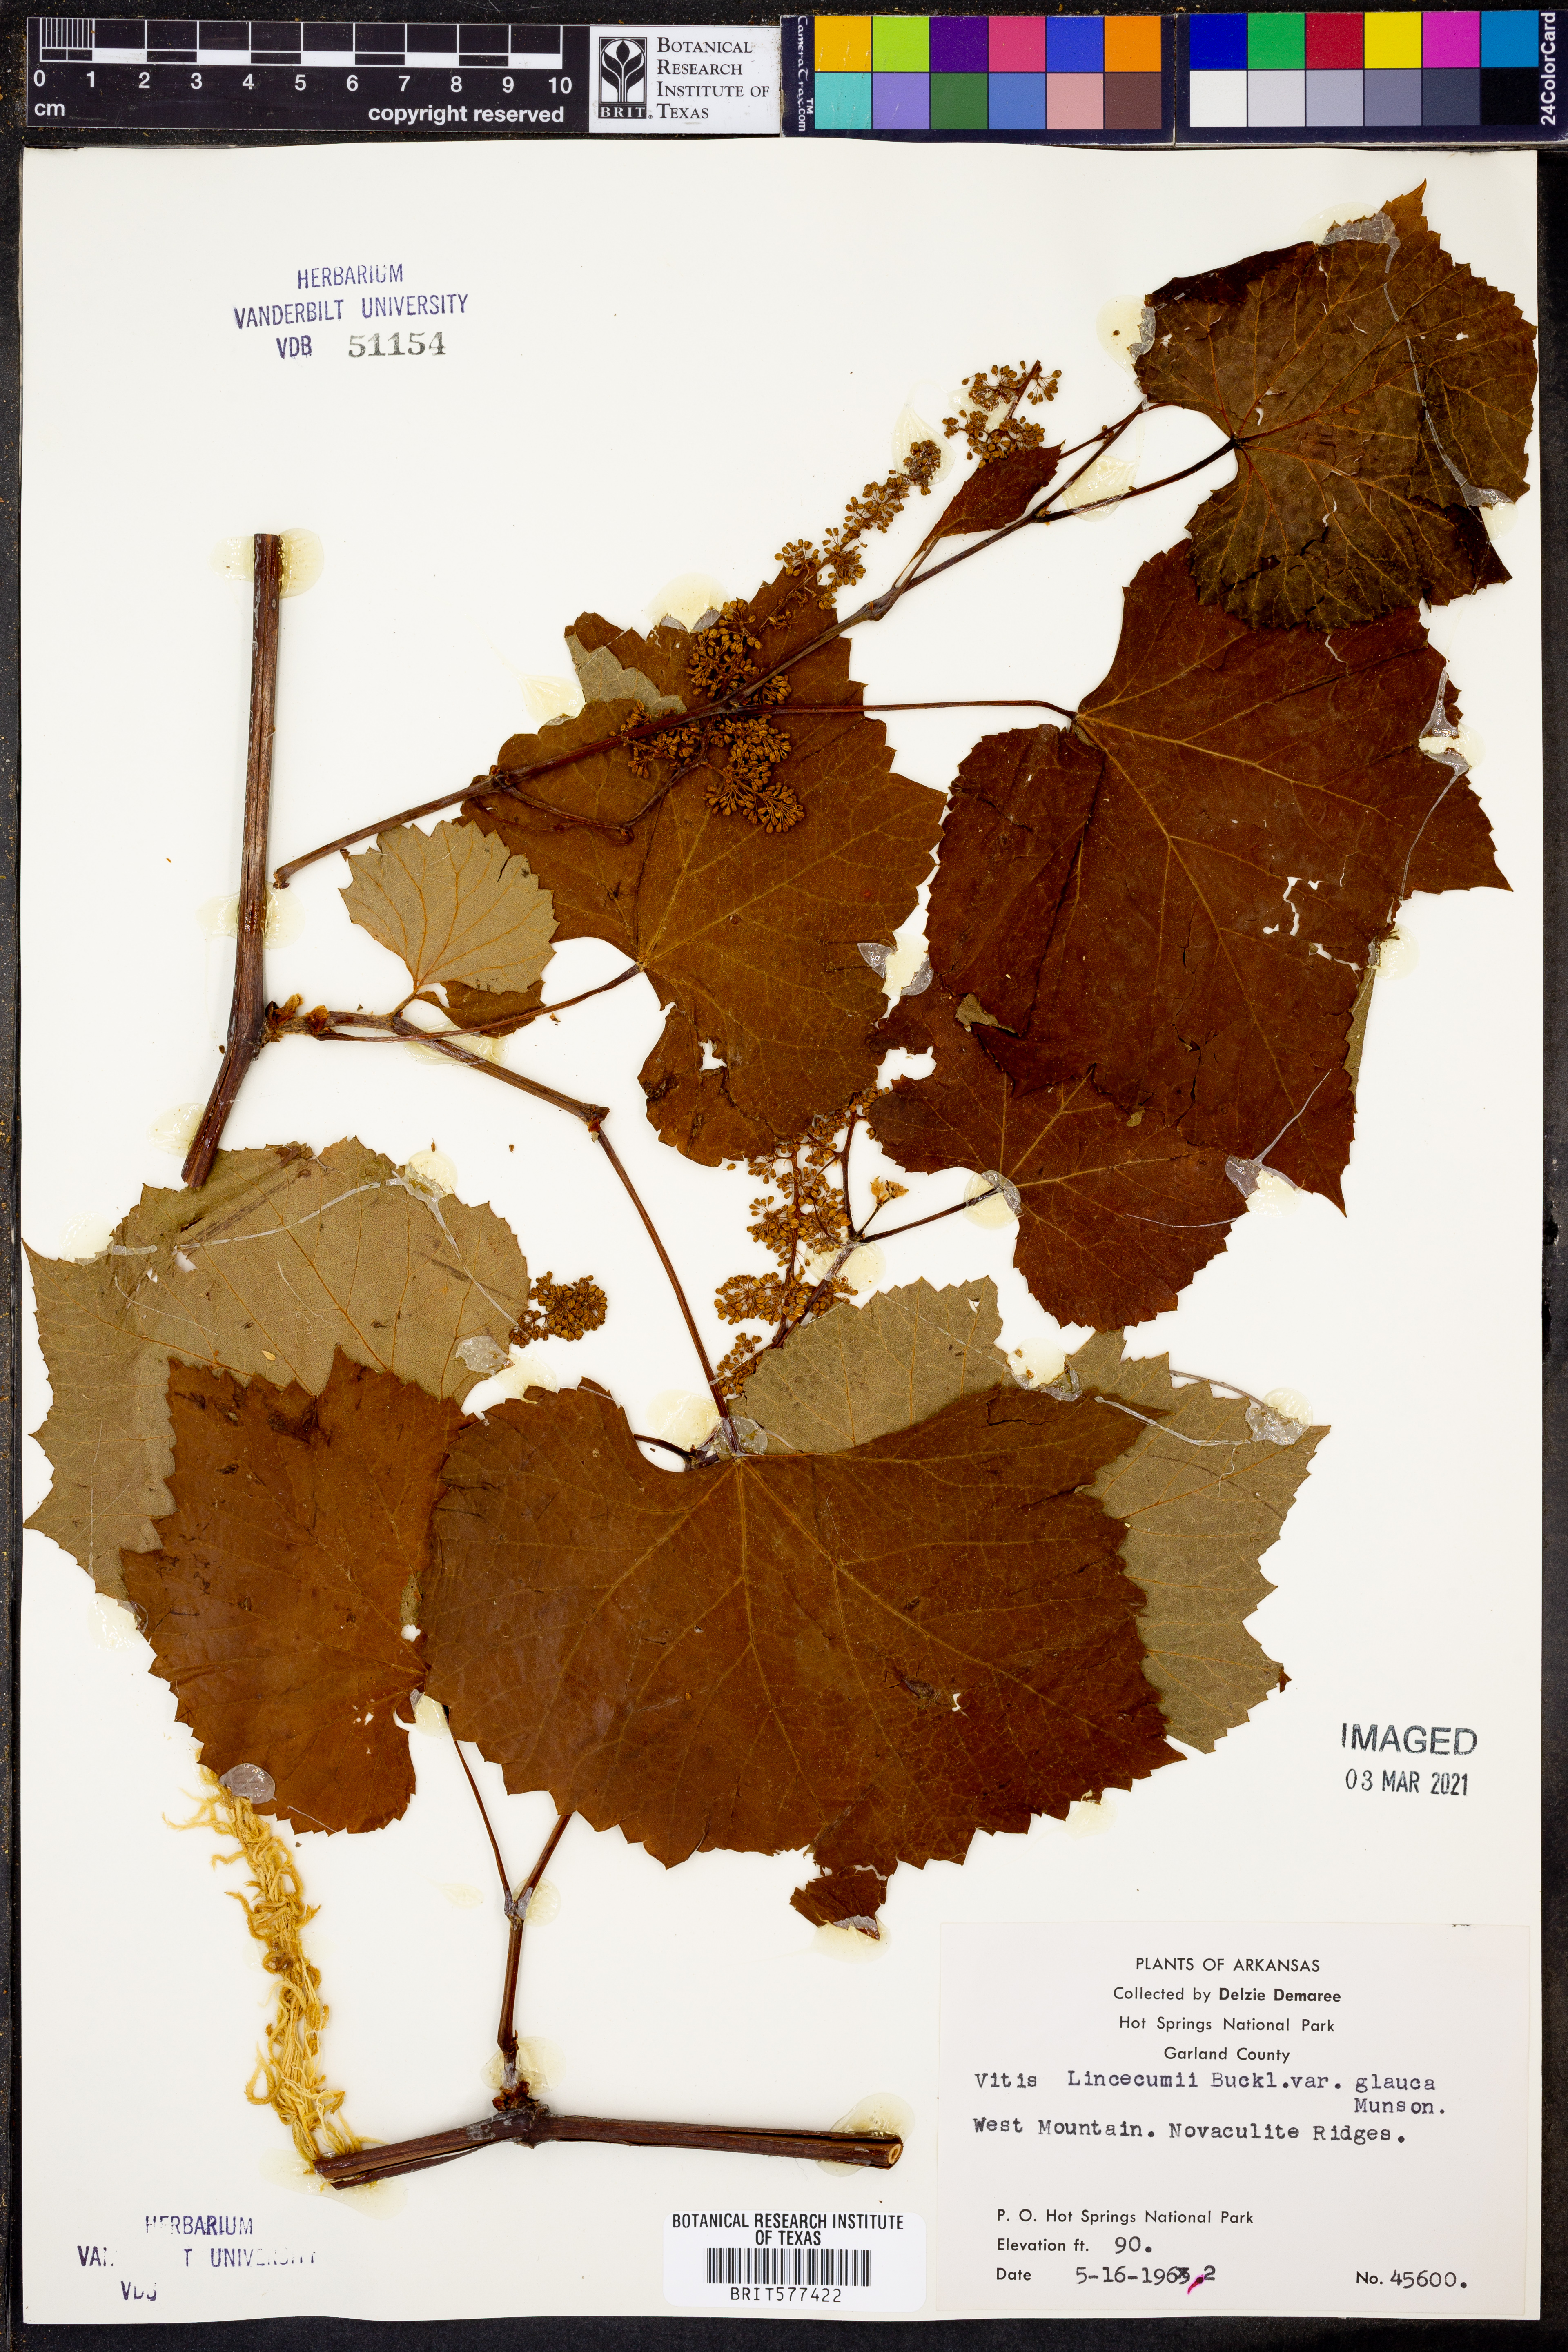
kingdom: Plantae
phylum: Tracheophyta
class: Magnoliopsida
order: Vitales
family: Vitaceae
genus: Vitis
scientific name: Vitis aestivalis
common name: Pigeon grape
